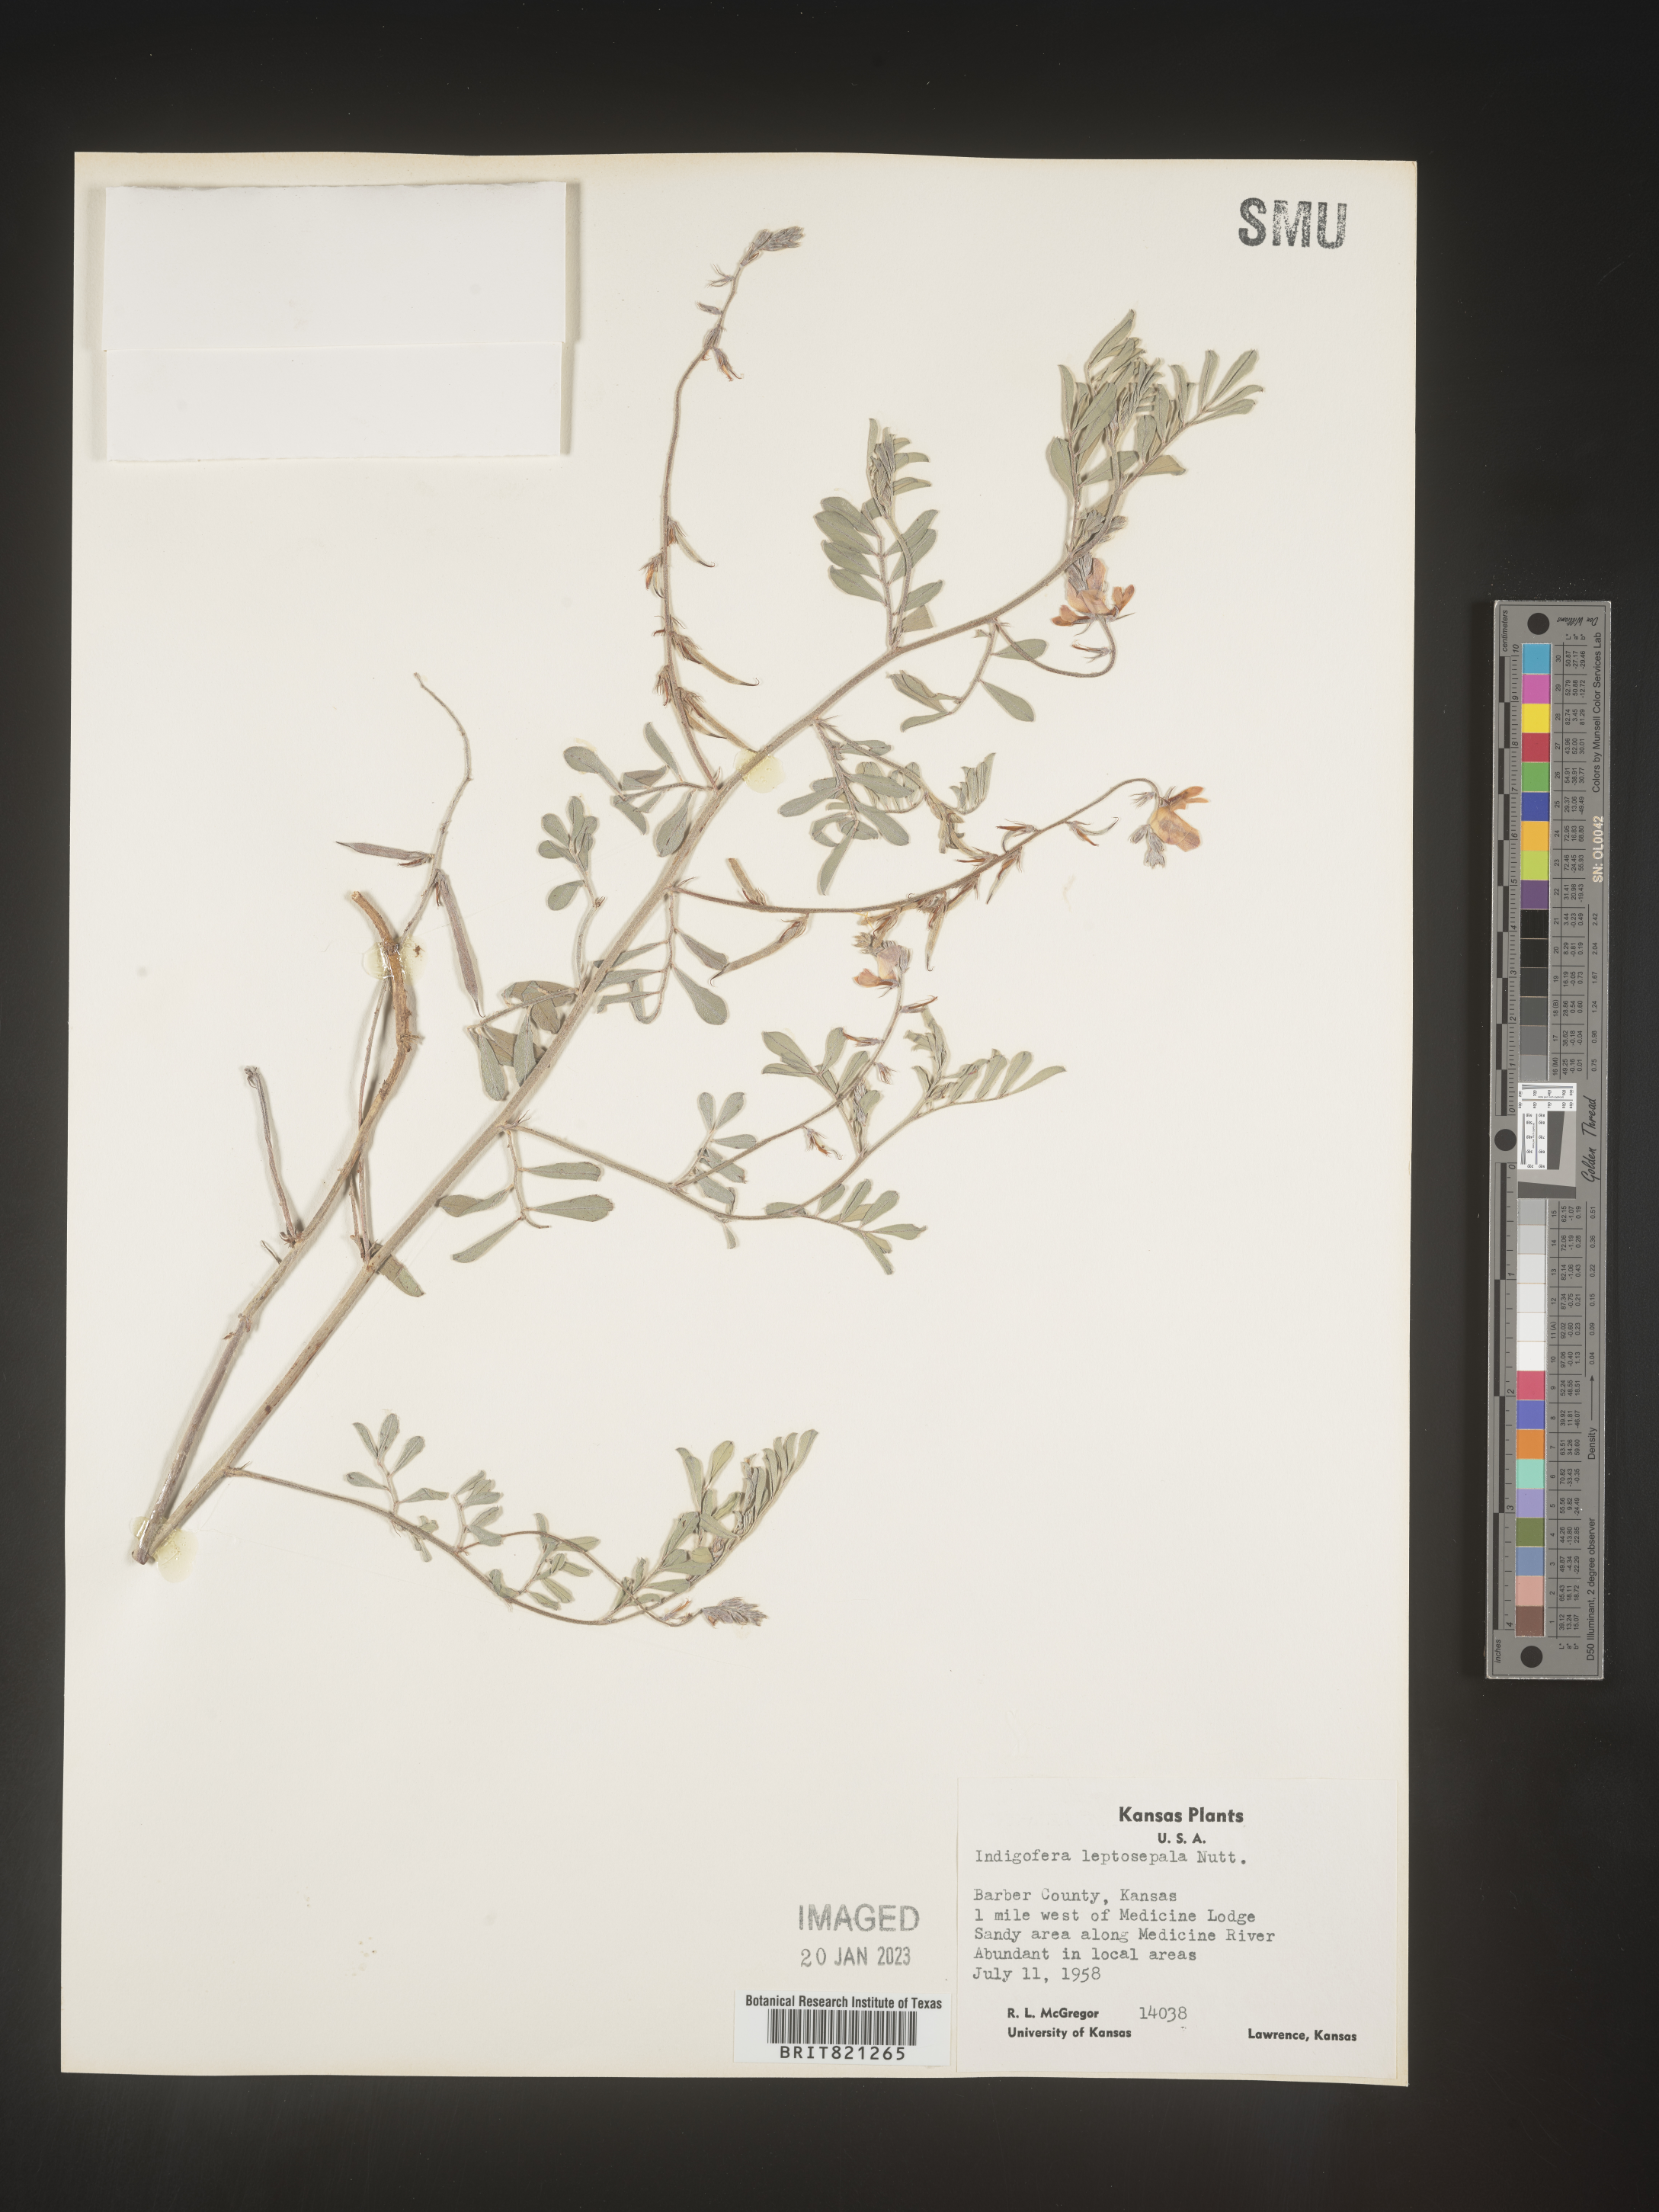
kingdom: Plantae
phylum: Tracheophyta
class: Magnoliopsida
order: Fabales
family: Fabaceae
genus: Indigofera
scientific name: Indigofera miniata
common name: Coast indigo
